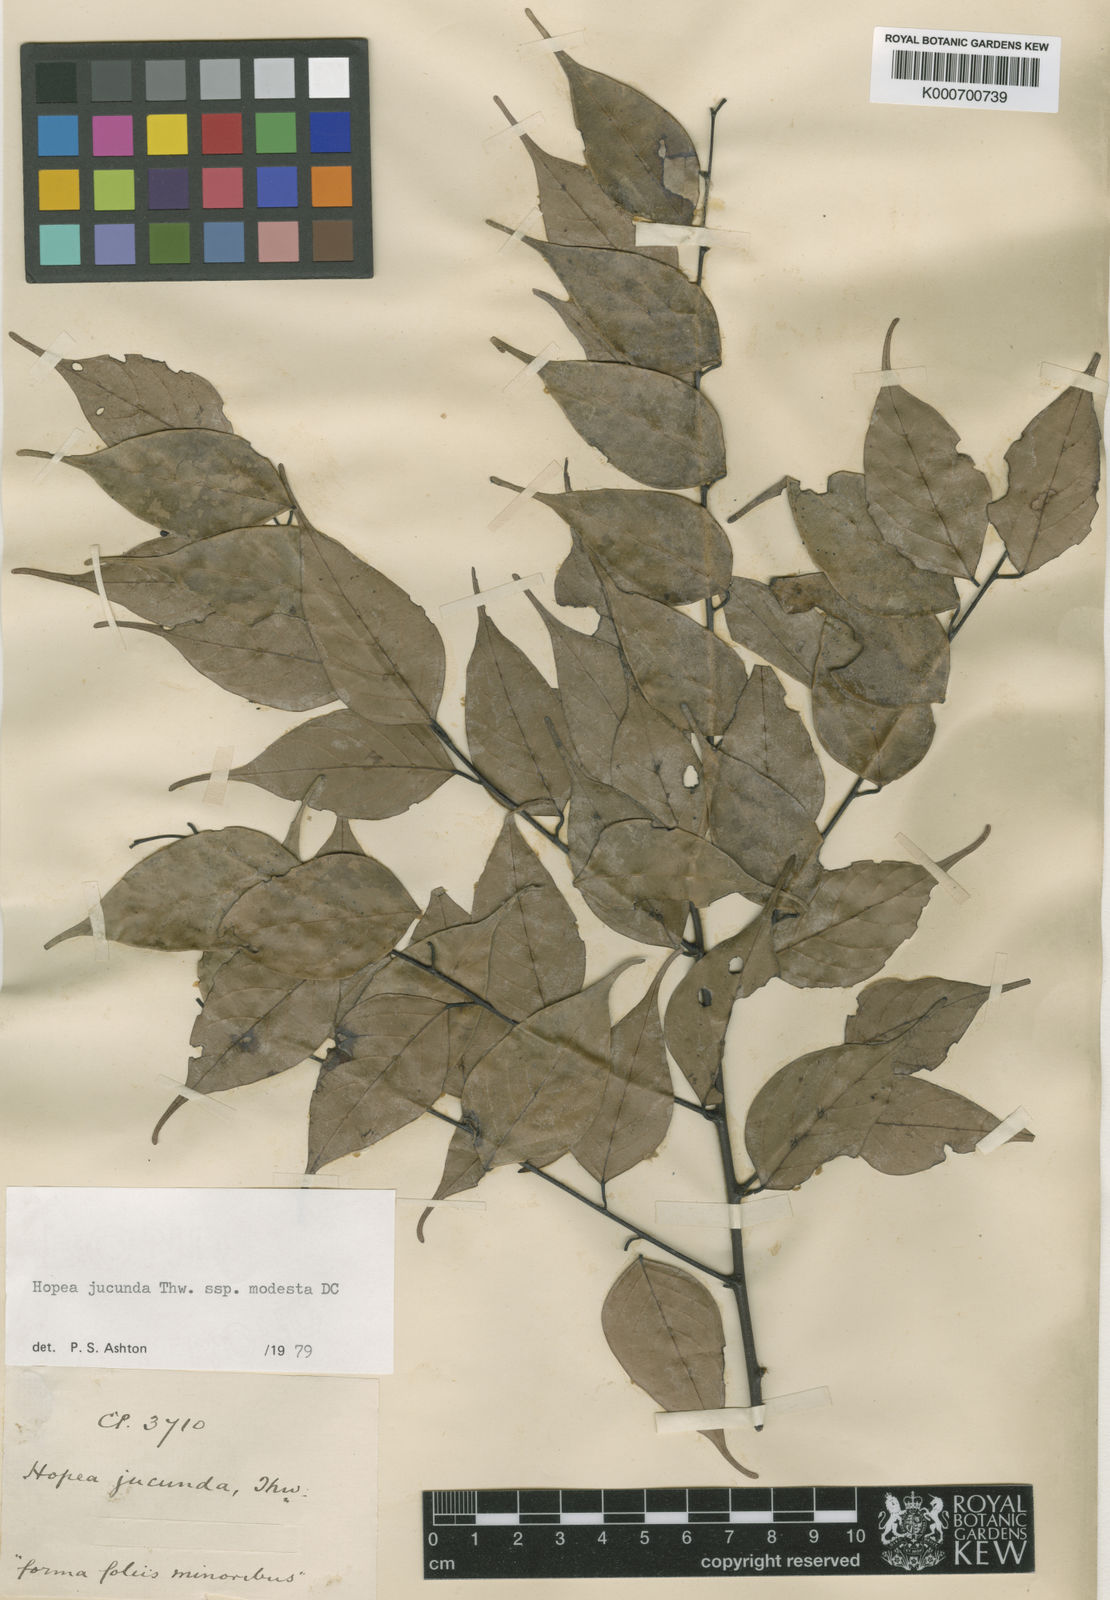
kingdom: Plantae
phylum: Tracheophyta
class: Magnoliopsida
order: Malvales
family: Dipterocarpaceae
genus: Hopea
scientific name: Hopea jucunda
